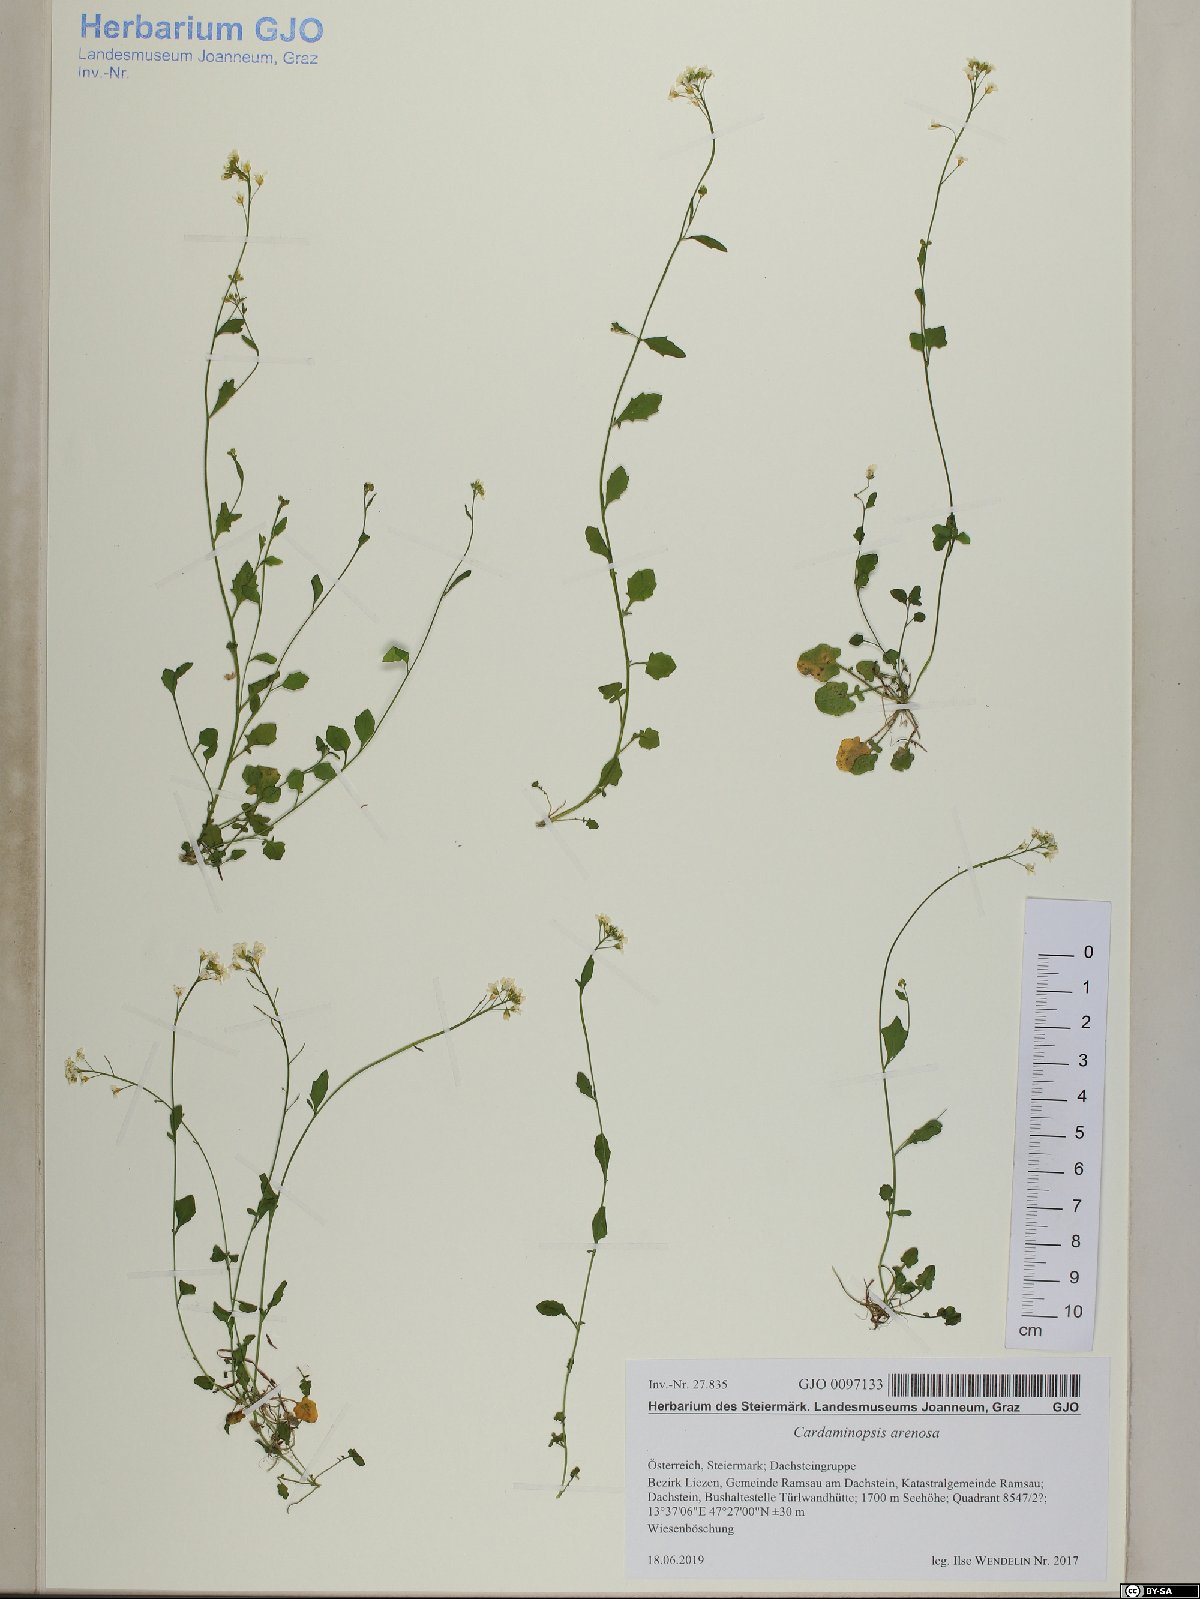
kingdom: Plantae
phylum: Tracheophyta
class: Magnoliopsida
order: Brassicales
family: Brassicaceae
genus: Arabidopsis
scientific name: Arabidopsis halleri
